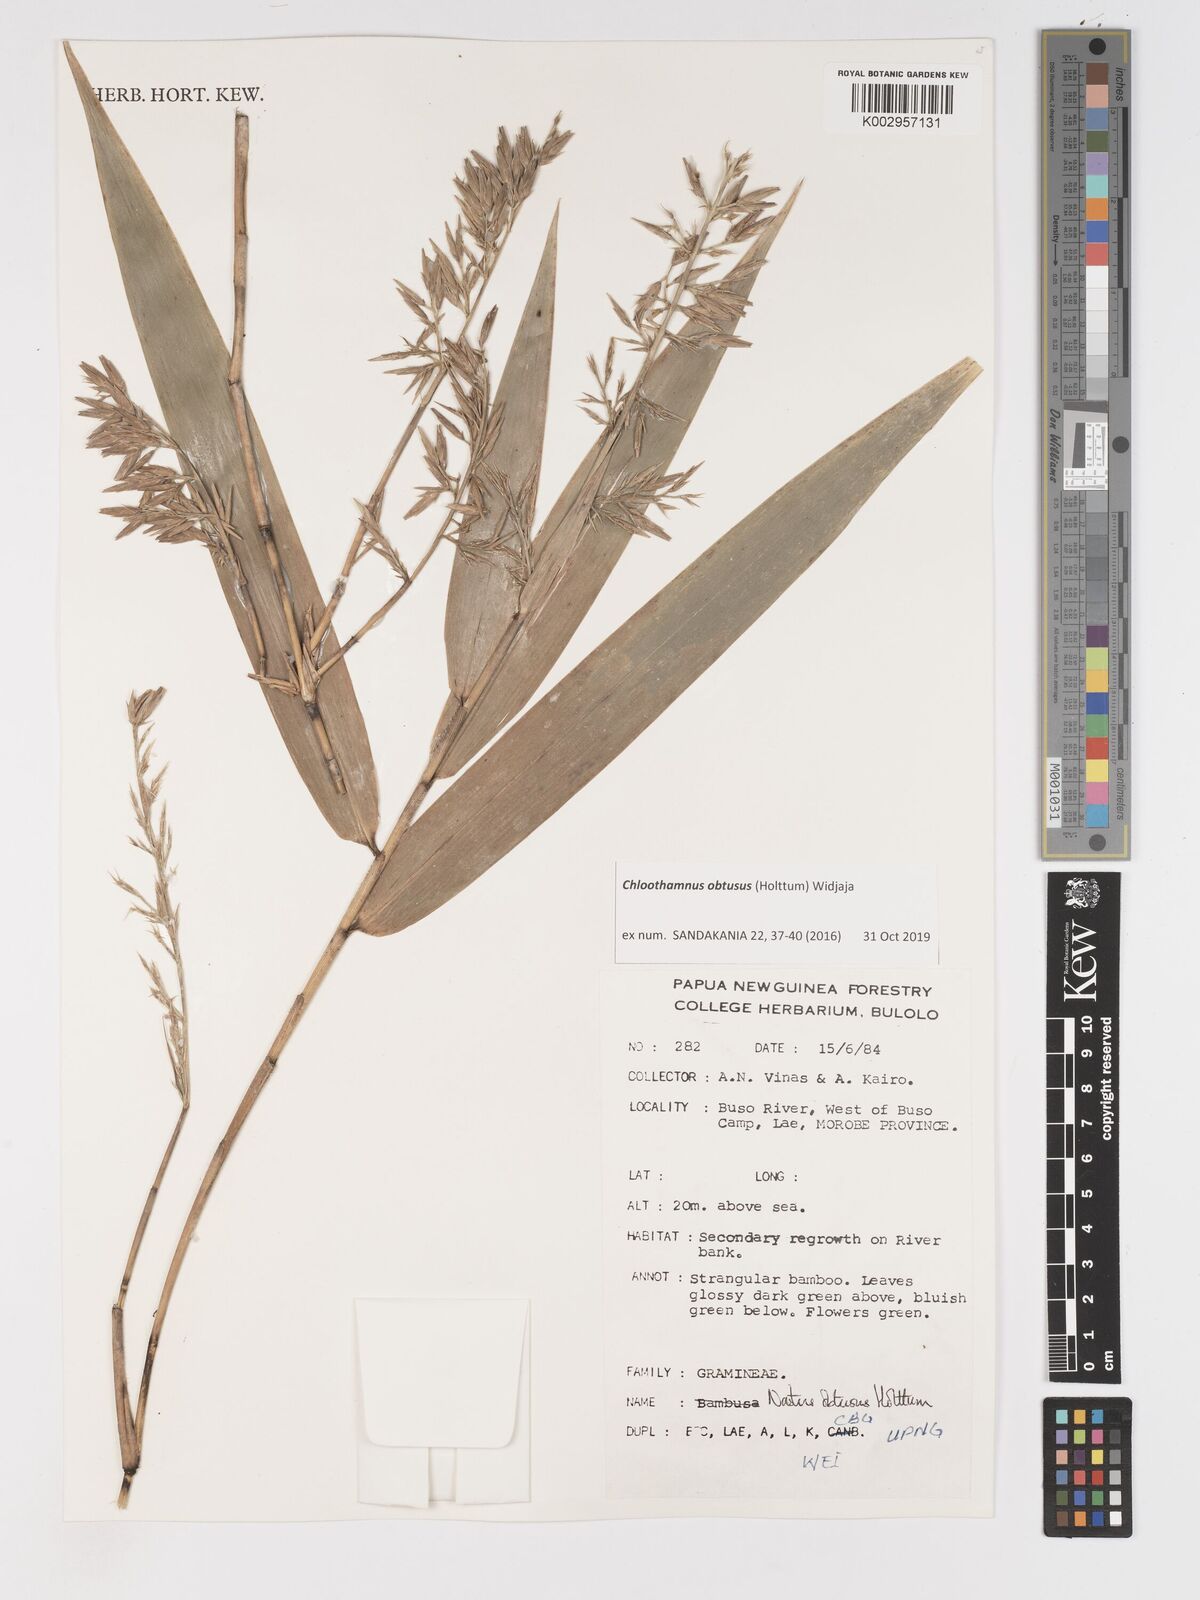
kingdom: Plantae
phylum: Tracheophyta
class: Liliopsida
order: Poales
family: Poaceae
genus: Chloothamnus
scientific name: Chloothamnus obtusus
